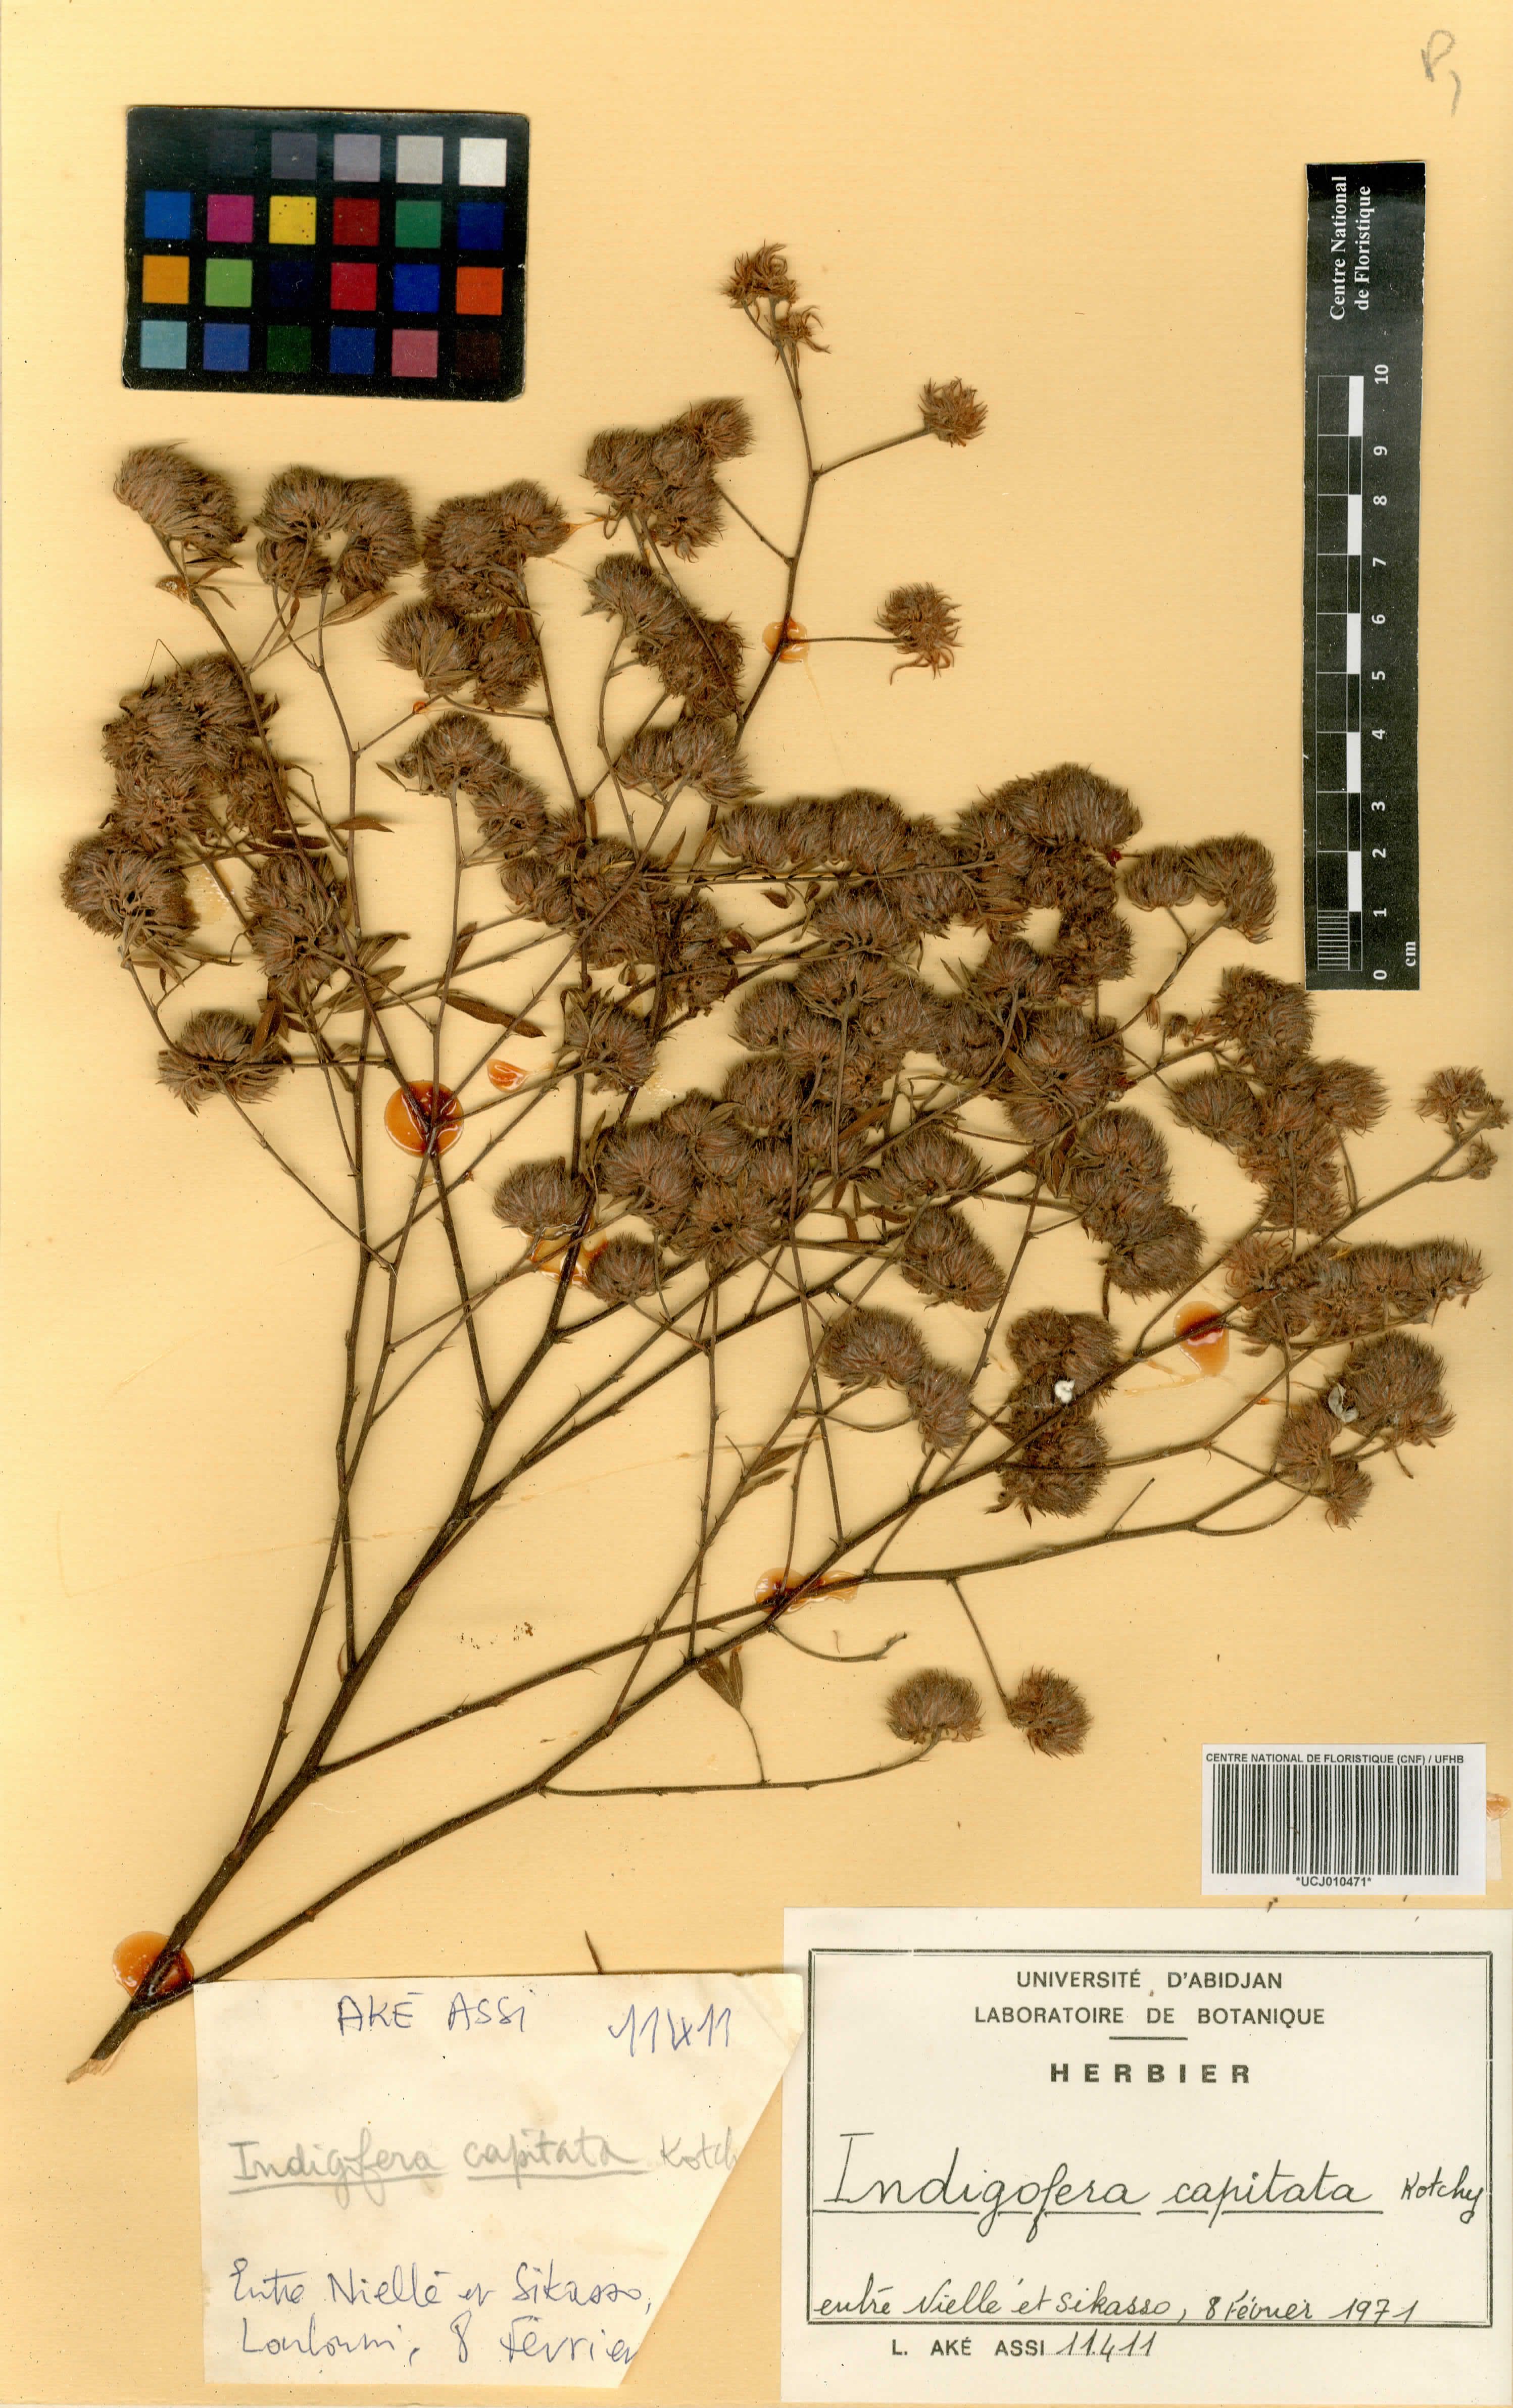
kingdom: Plantae
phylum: Tracheophyta
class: Magnoliopsida
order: Fabales
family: Fabaceae
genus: Indigofera
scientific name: Indigofera capitata
